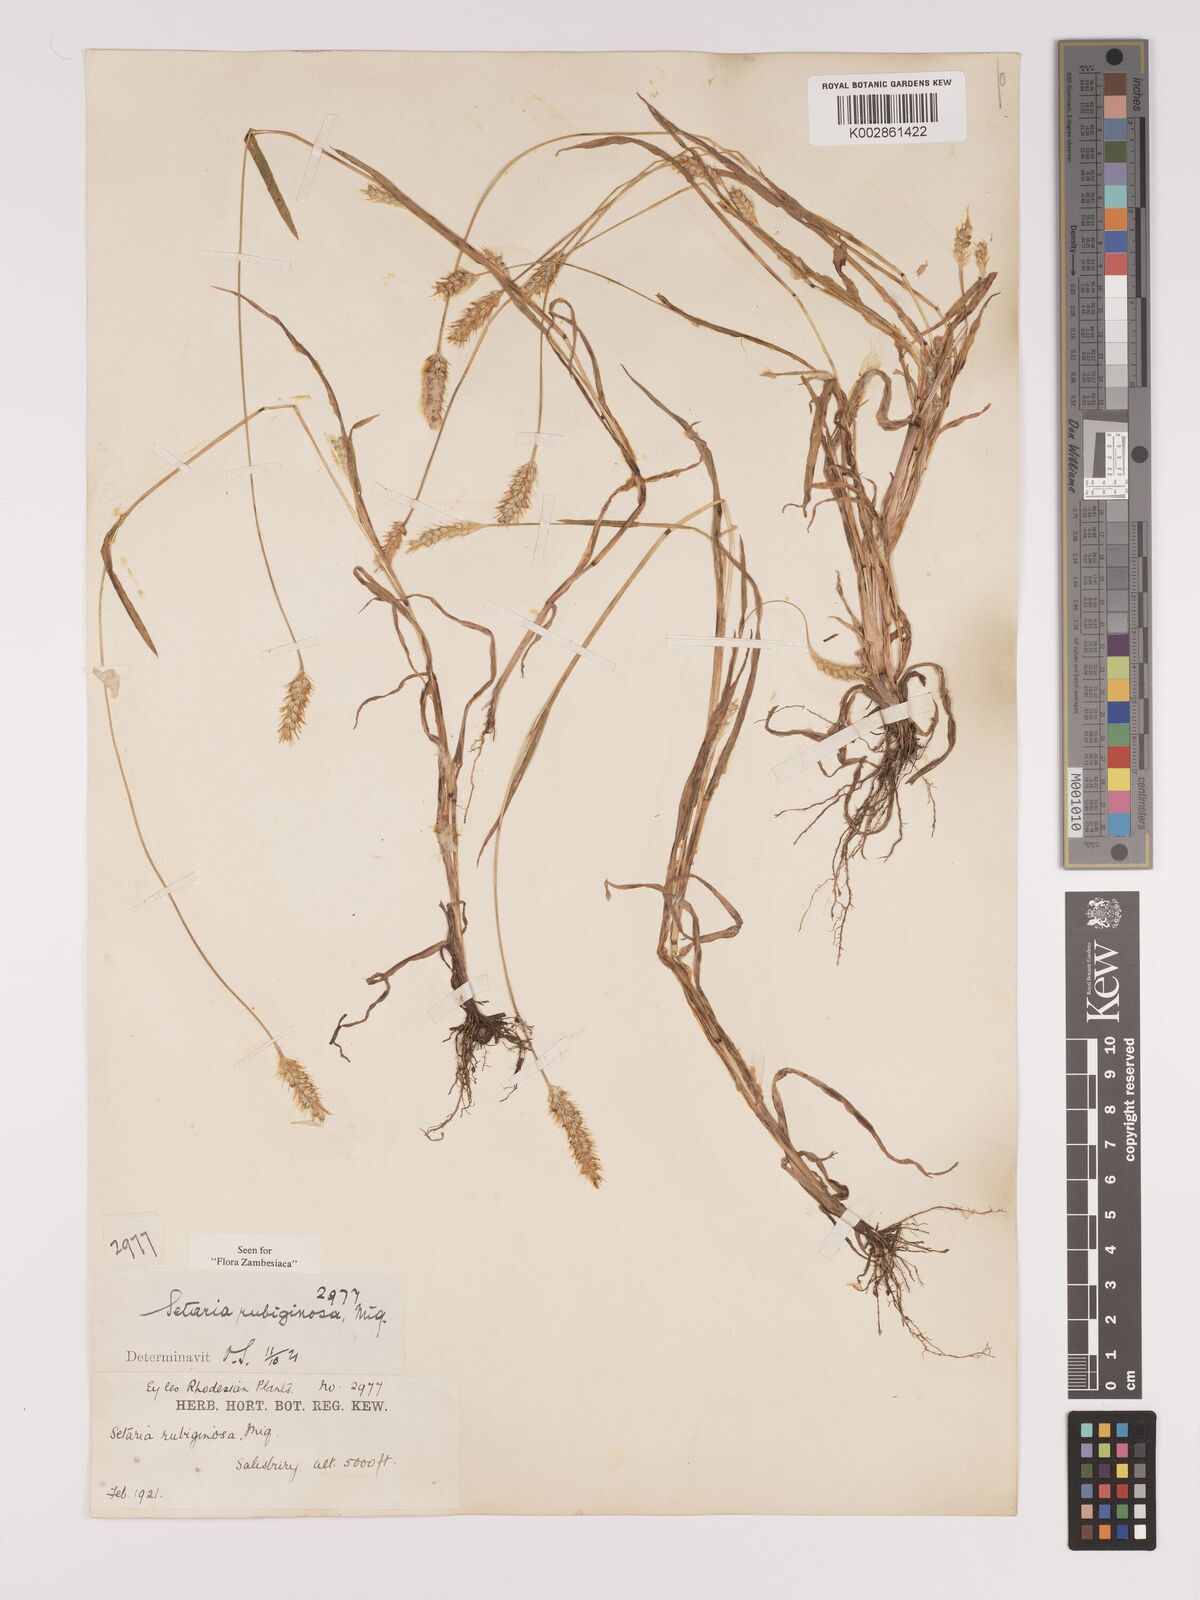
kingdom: Plantae
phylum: Tracheophyta
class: Liliopsida
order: Poales
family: Poaceae
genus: Setaria
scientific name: Setaria pumila
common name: Yellow bristle-grass
